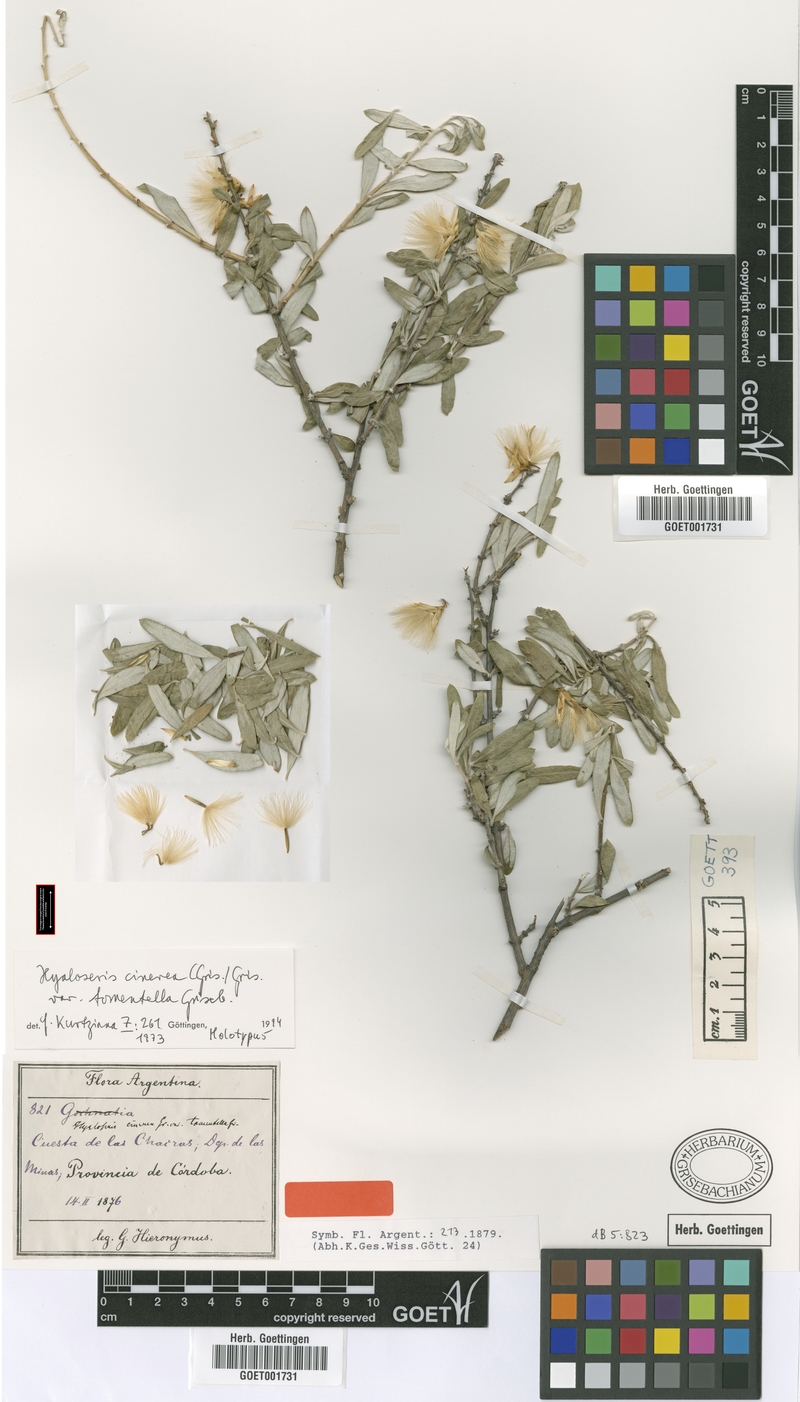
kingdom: Plantae
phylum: Tracheophyta
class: Magnoliopsida
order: Asterales
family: Asteraceae
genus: Hyaloseris
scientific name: Hyaloseris cinerea
